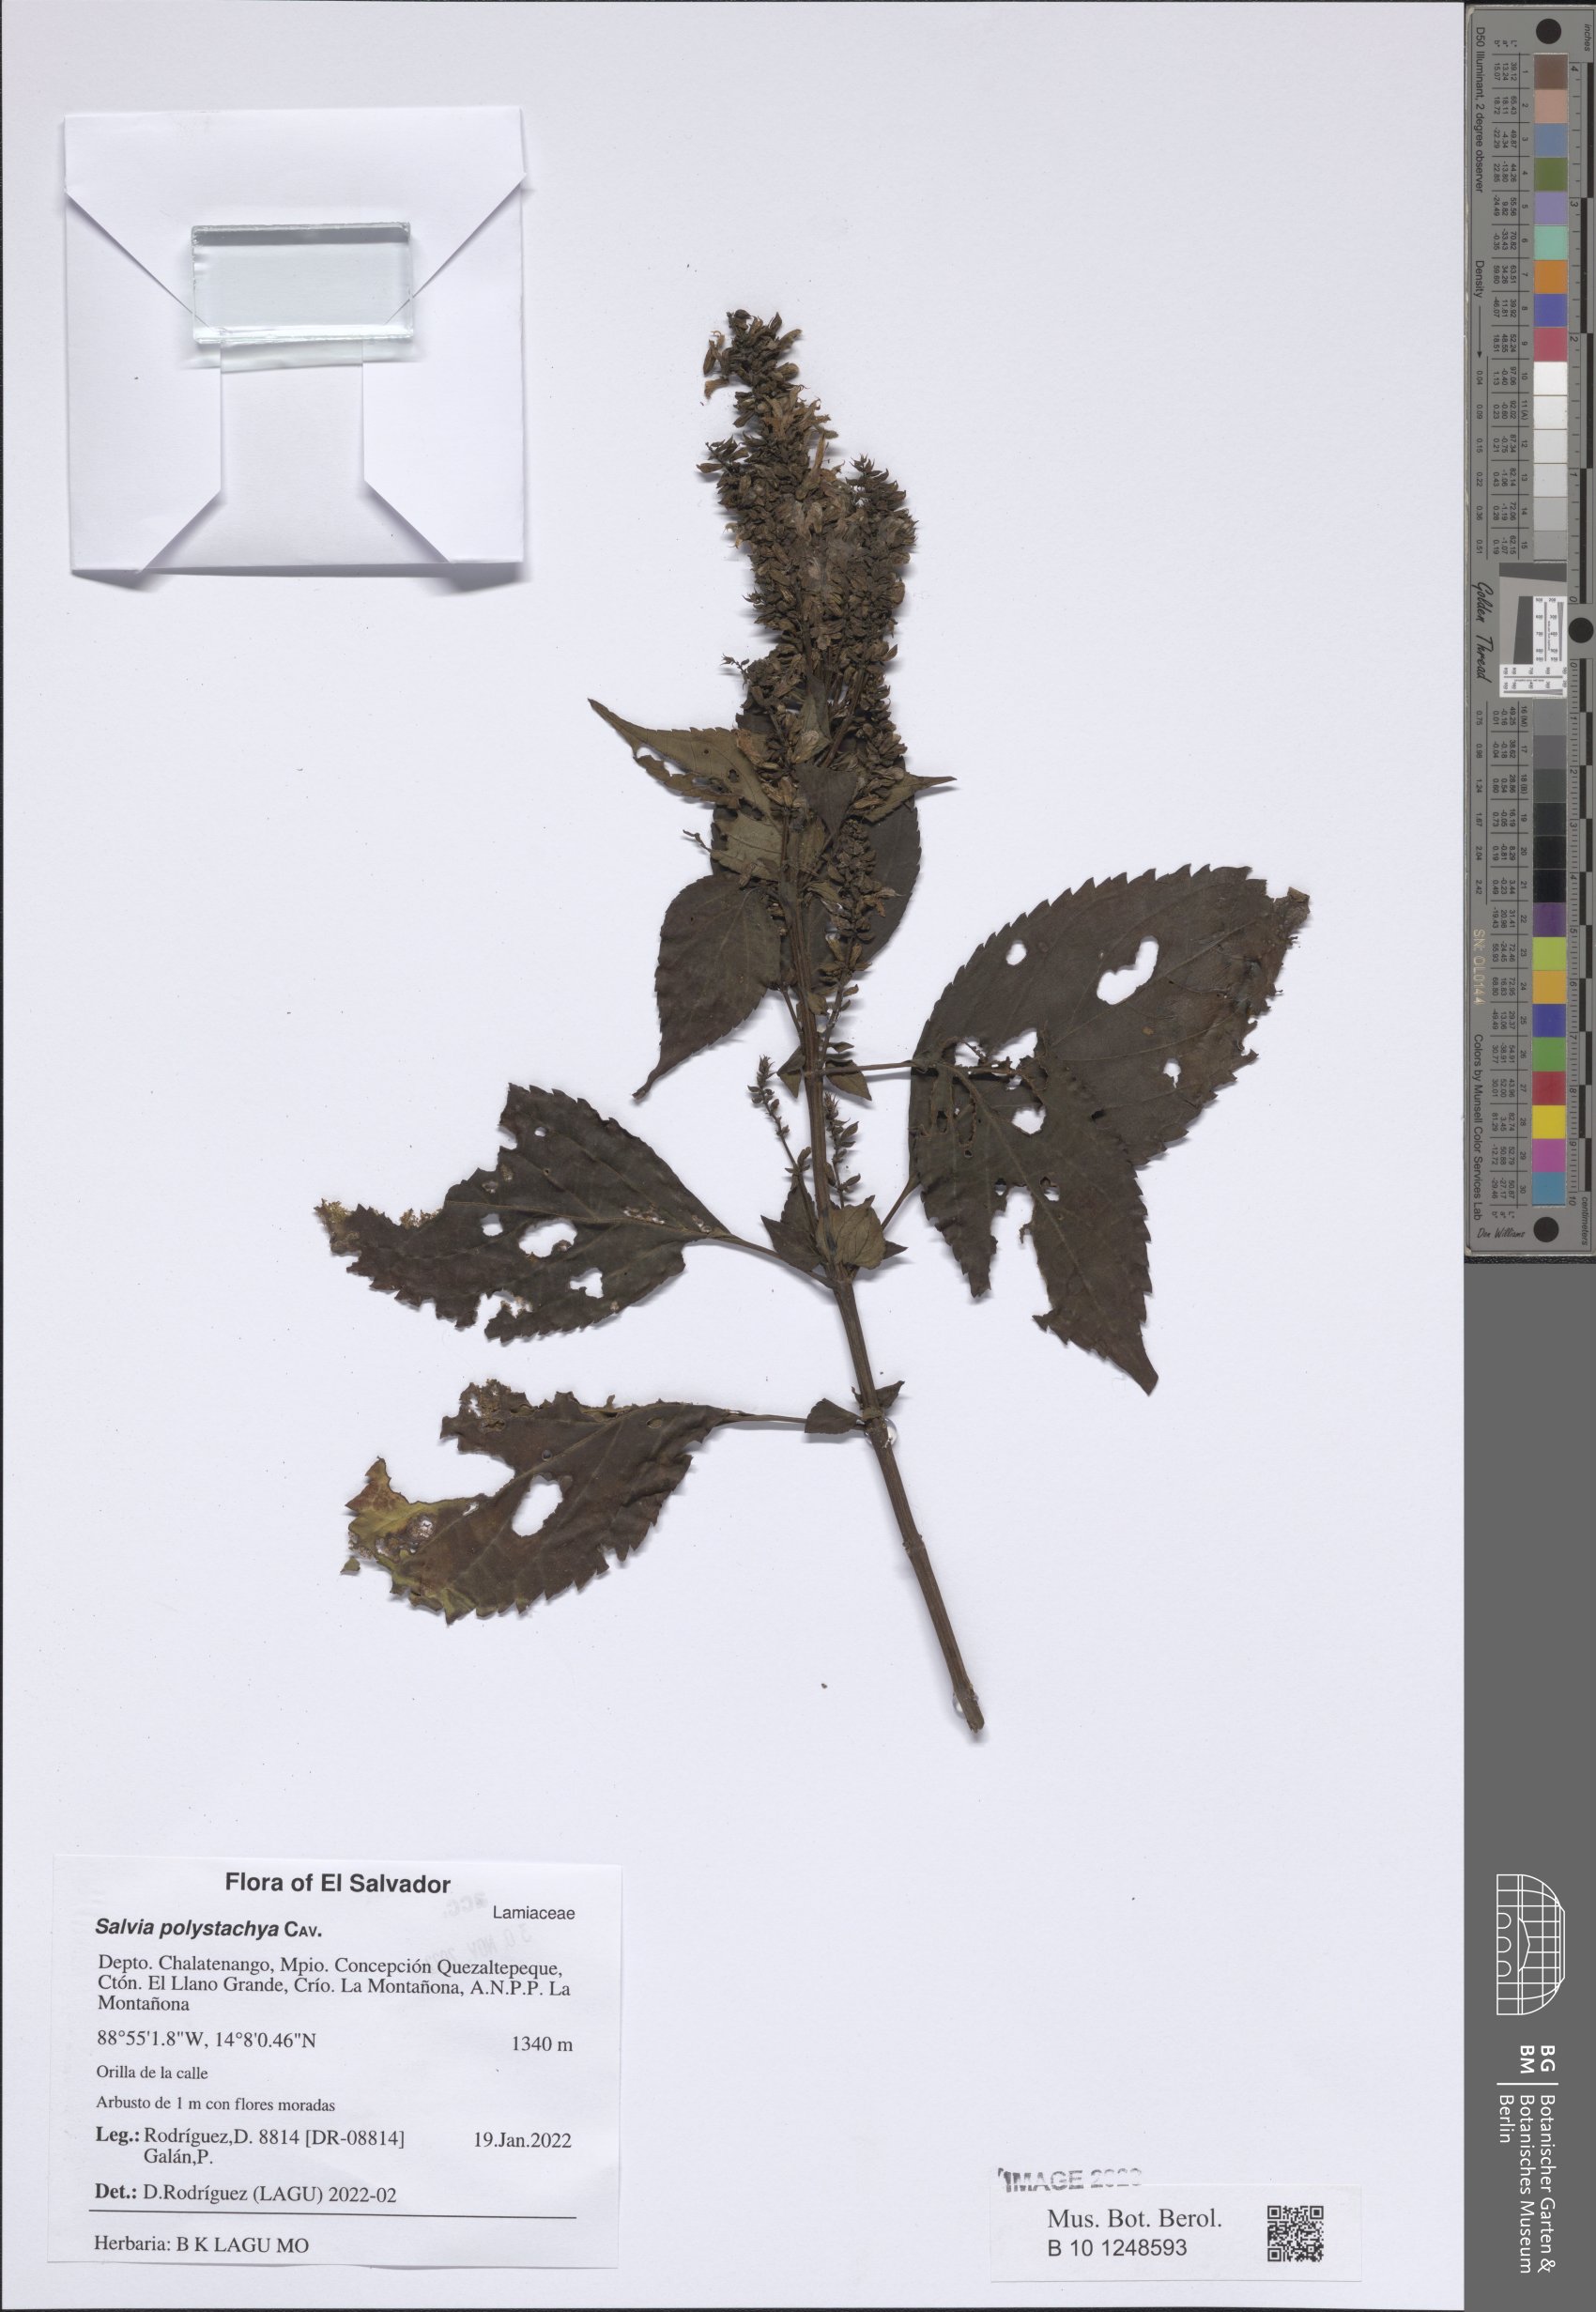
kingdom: Plantae
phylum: Tracheophyta
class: Magnoliopsida
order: Lamiales
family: Lamiaceae
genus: Salvia
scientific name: Salvia polystachia
